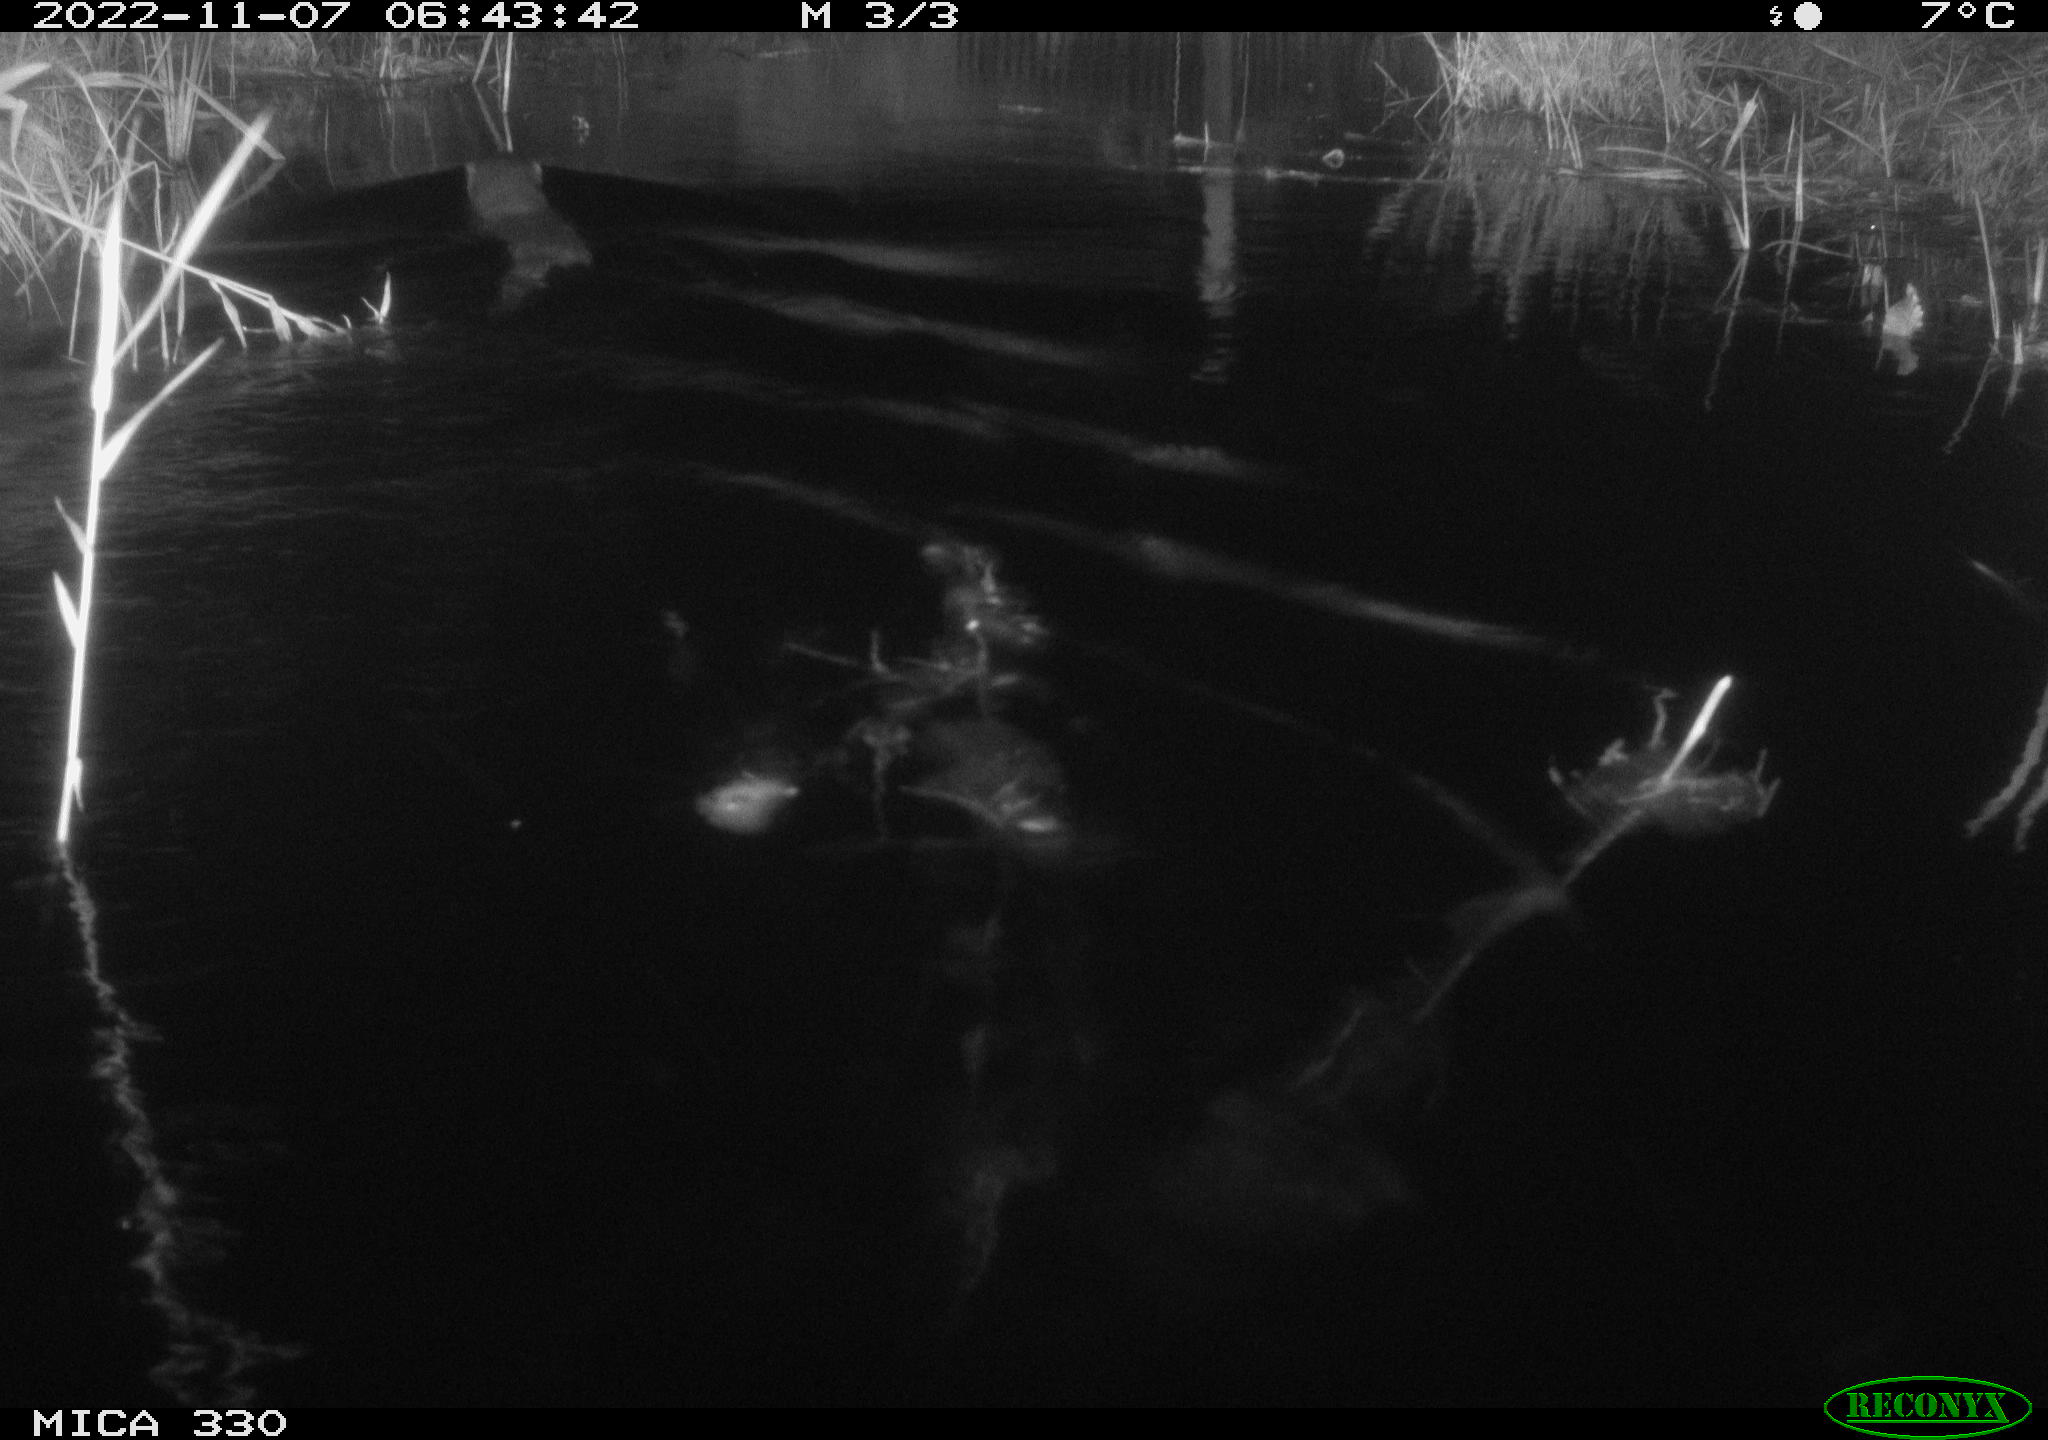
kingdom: Animalia
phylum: Chordata
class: Mammalia
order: Rodentia
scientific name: Rodentia
